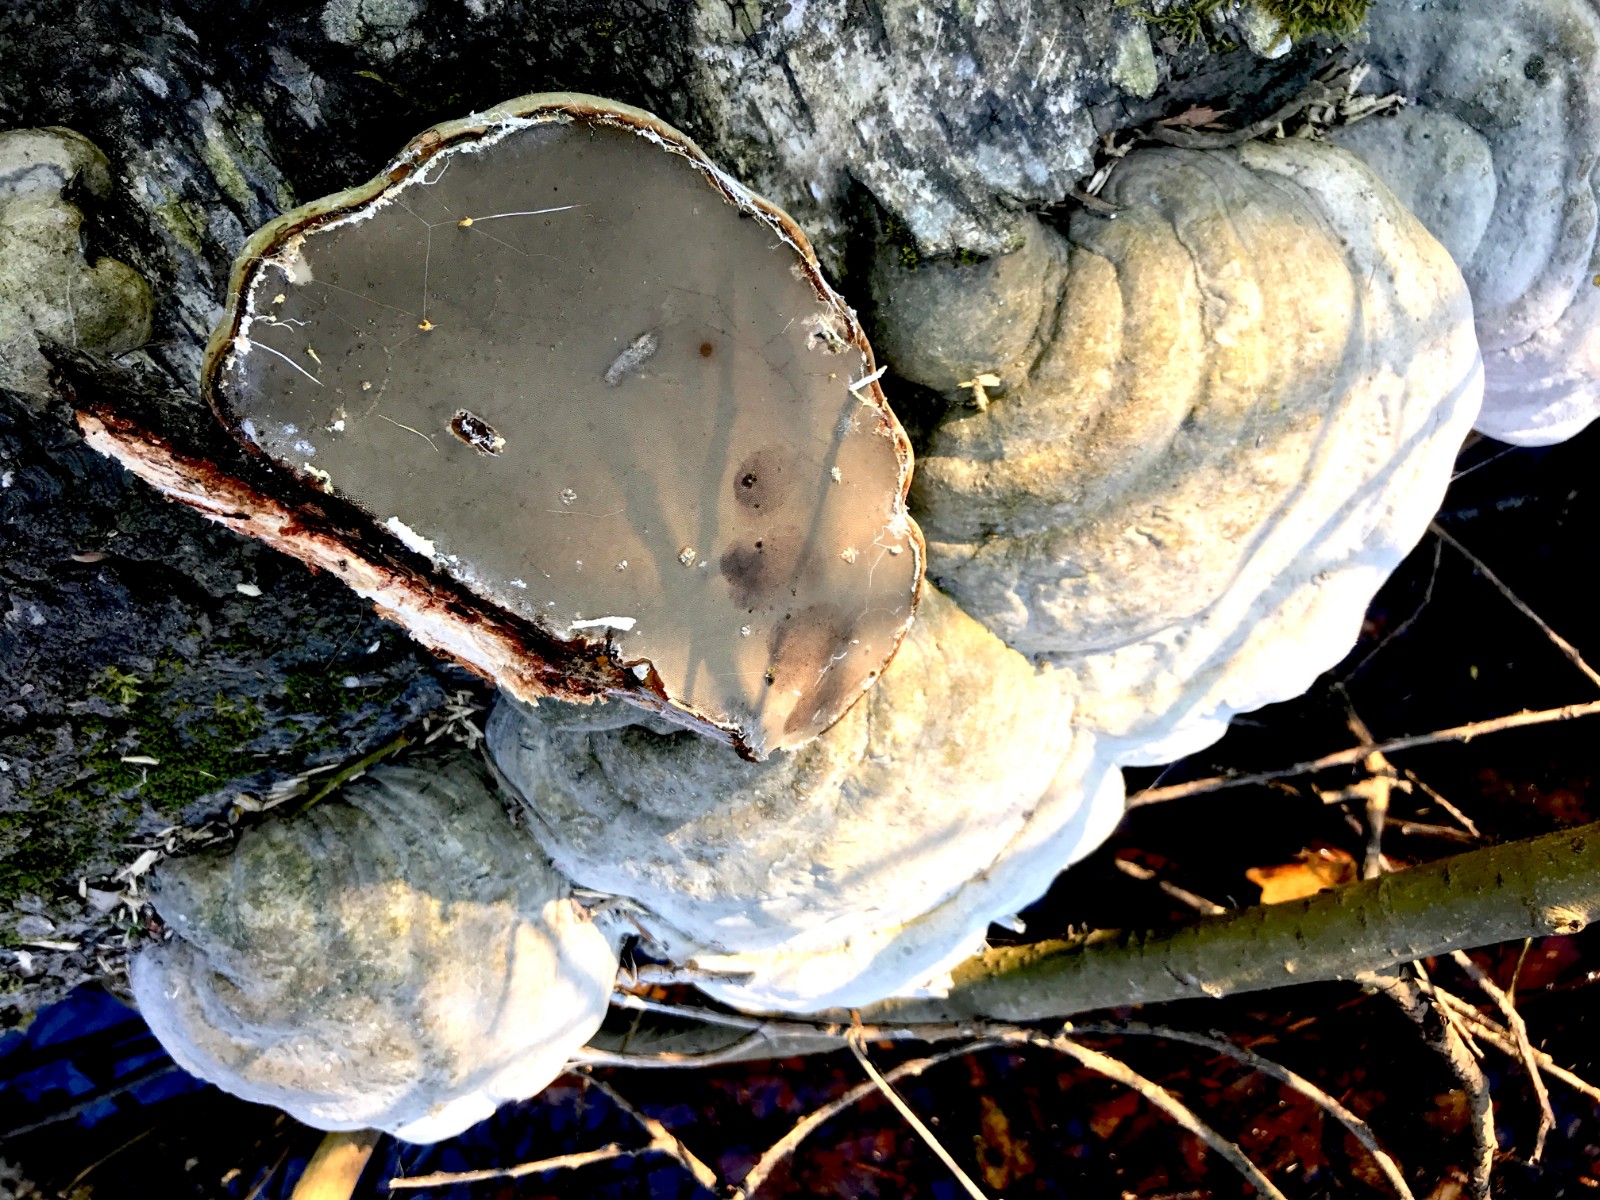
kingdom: Fungi
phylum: Basidiomycota
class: Agaricomycetes
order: Polyporales
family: Polyporaceae
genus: Fomes
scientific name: Fomes fomentarius
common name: tøndersvamp
